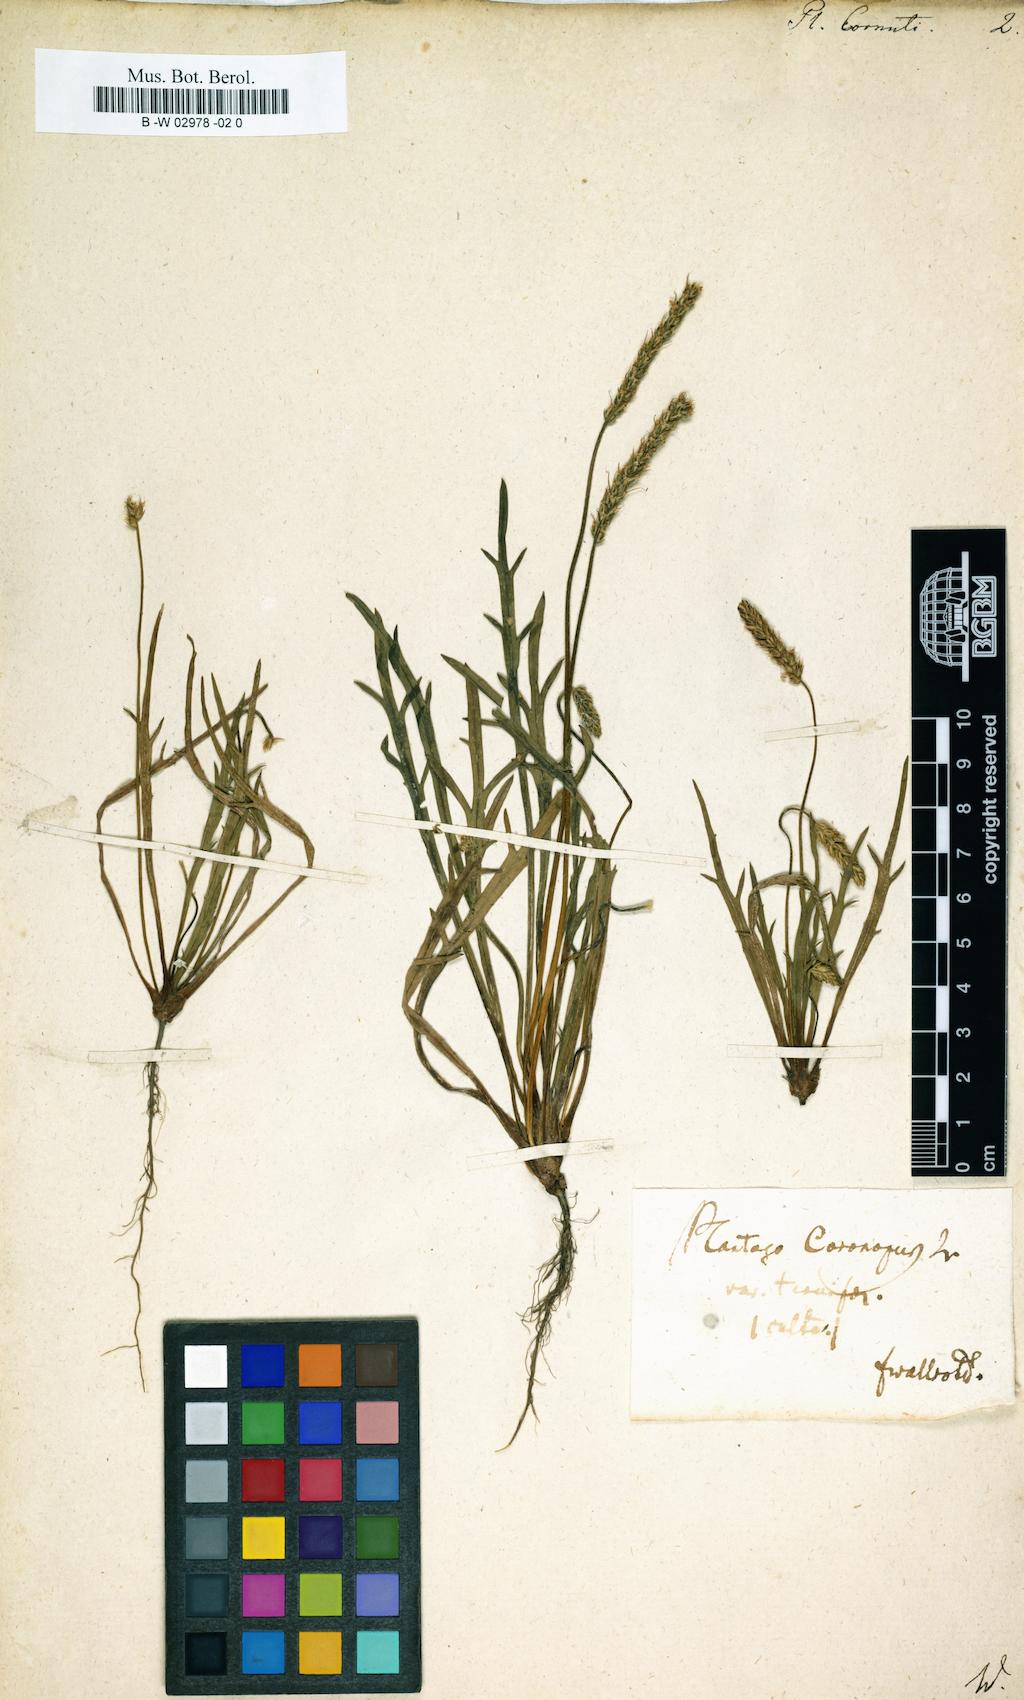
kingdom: Plantae
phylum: Tracheophyta
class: Magnoliopsida
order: Lamiales
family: Plantaginaceae
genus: Plantago
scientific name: Plantago cornuti
